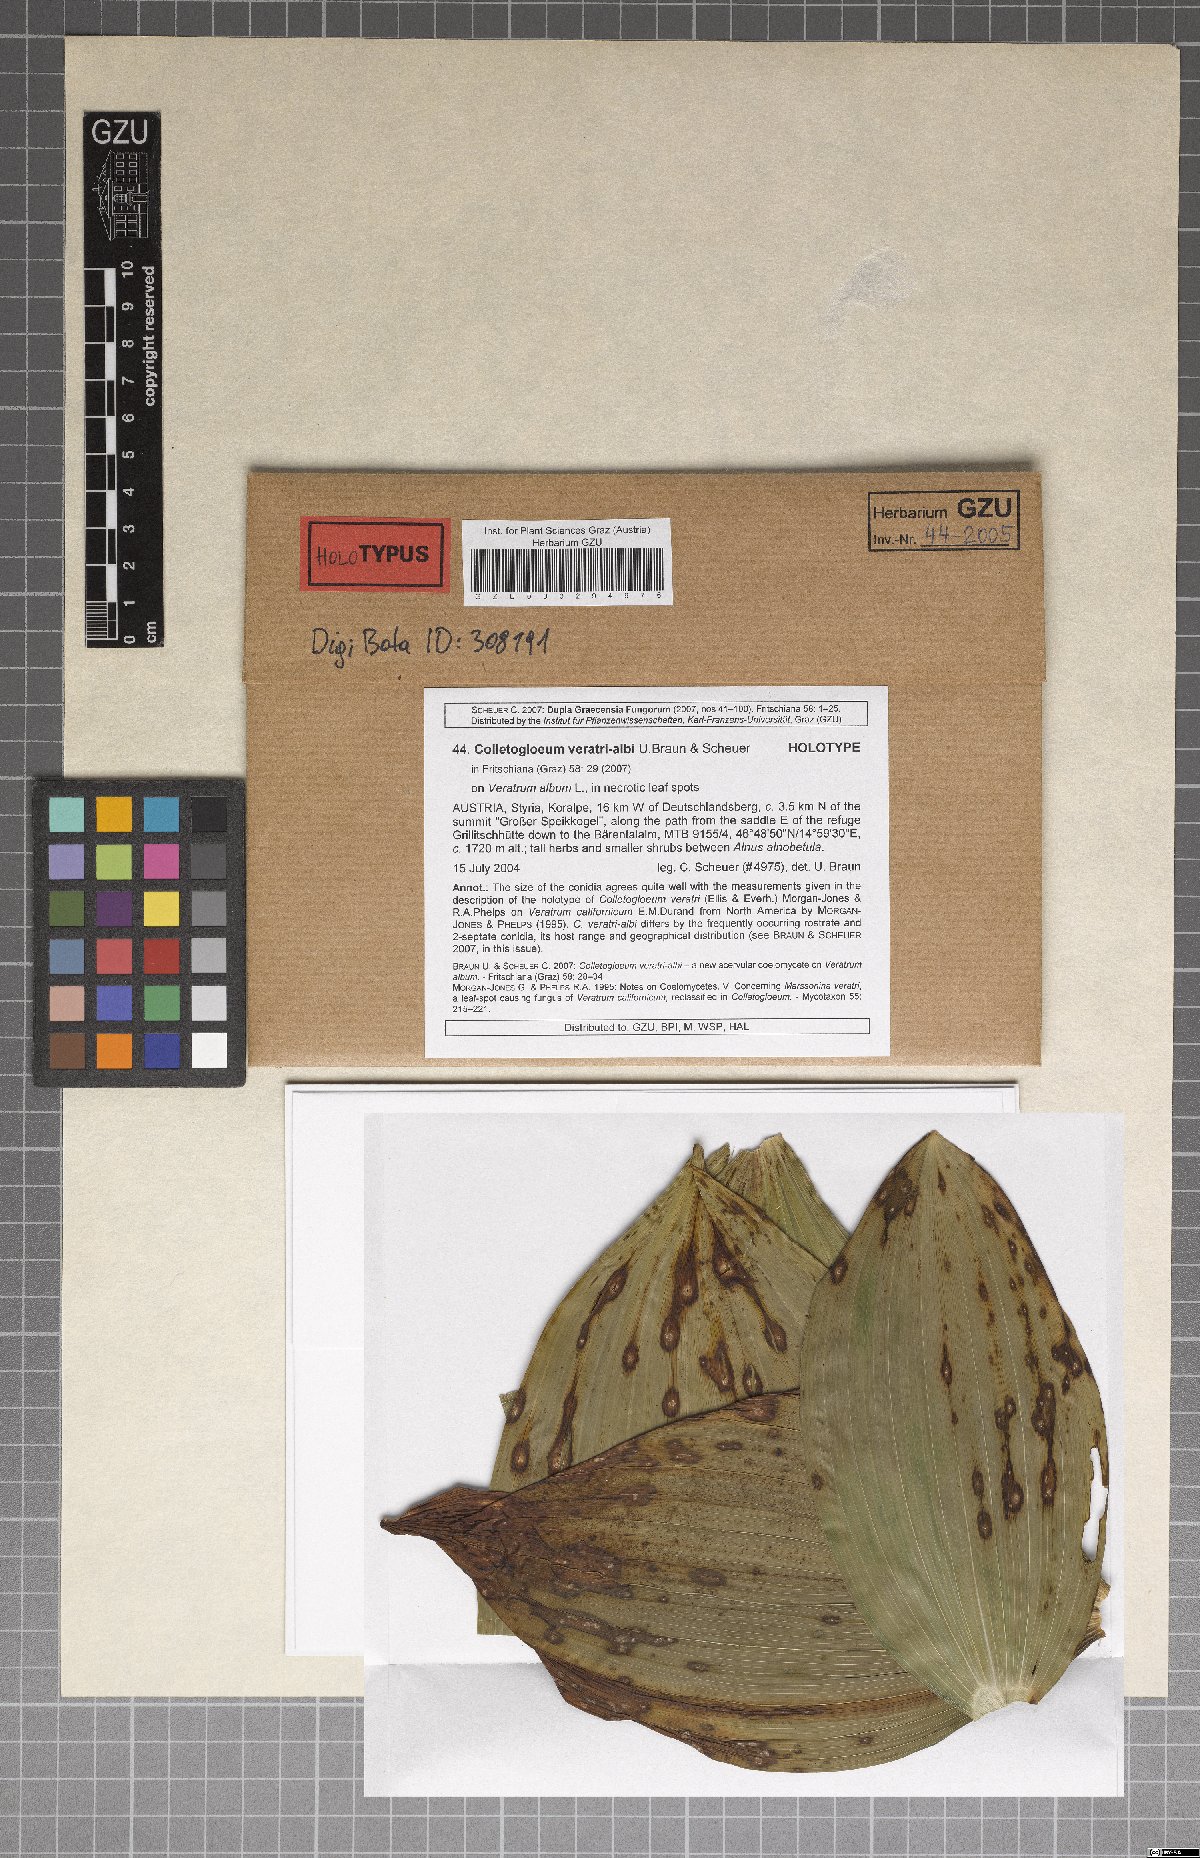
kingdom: Fungi
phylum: Ascomycota
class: Dothideomycetes
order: Mycosphaerellales
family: Mycosphaerellaceae
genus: Colletogloeum
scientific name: Colletogloeum veratri-albi
